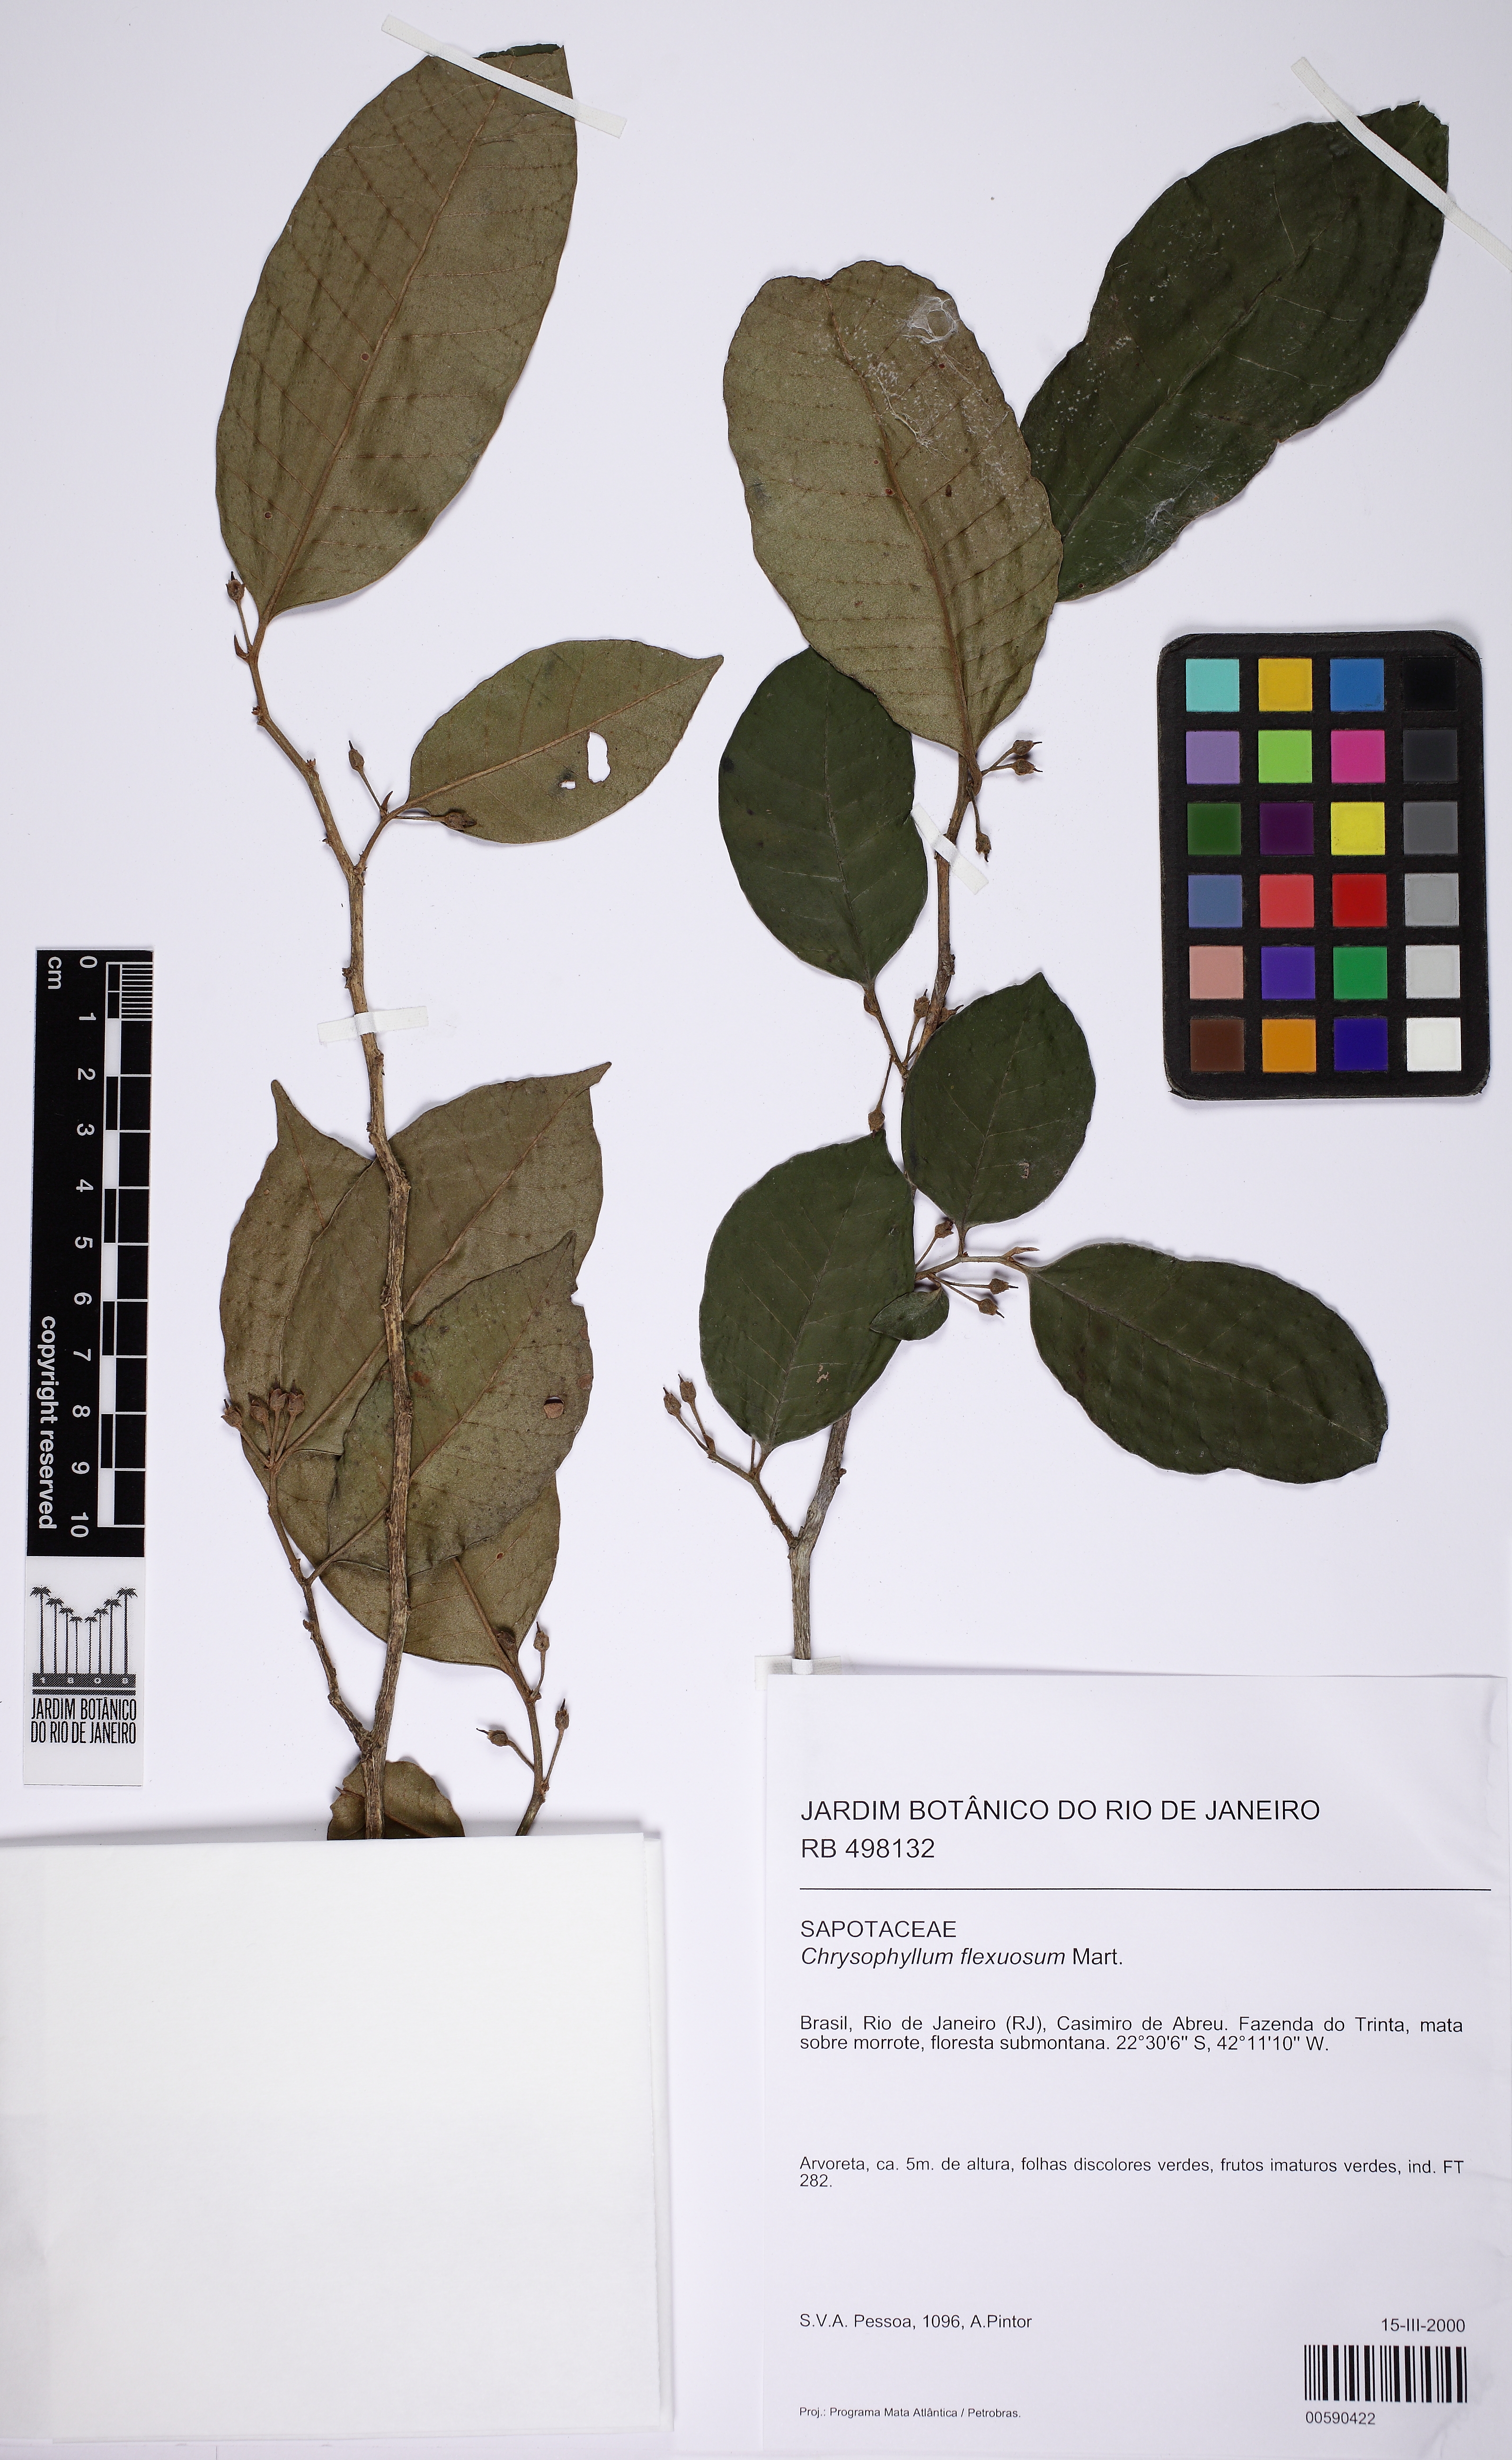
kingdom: Plantae
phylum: Tracheophyta
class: Magnoliopsida
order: Ericales
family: Sapotaceae
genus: Chrysophyllum
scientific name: Chrysophyllum flexuosum
